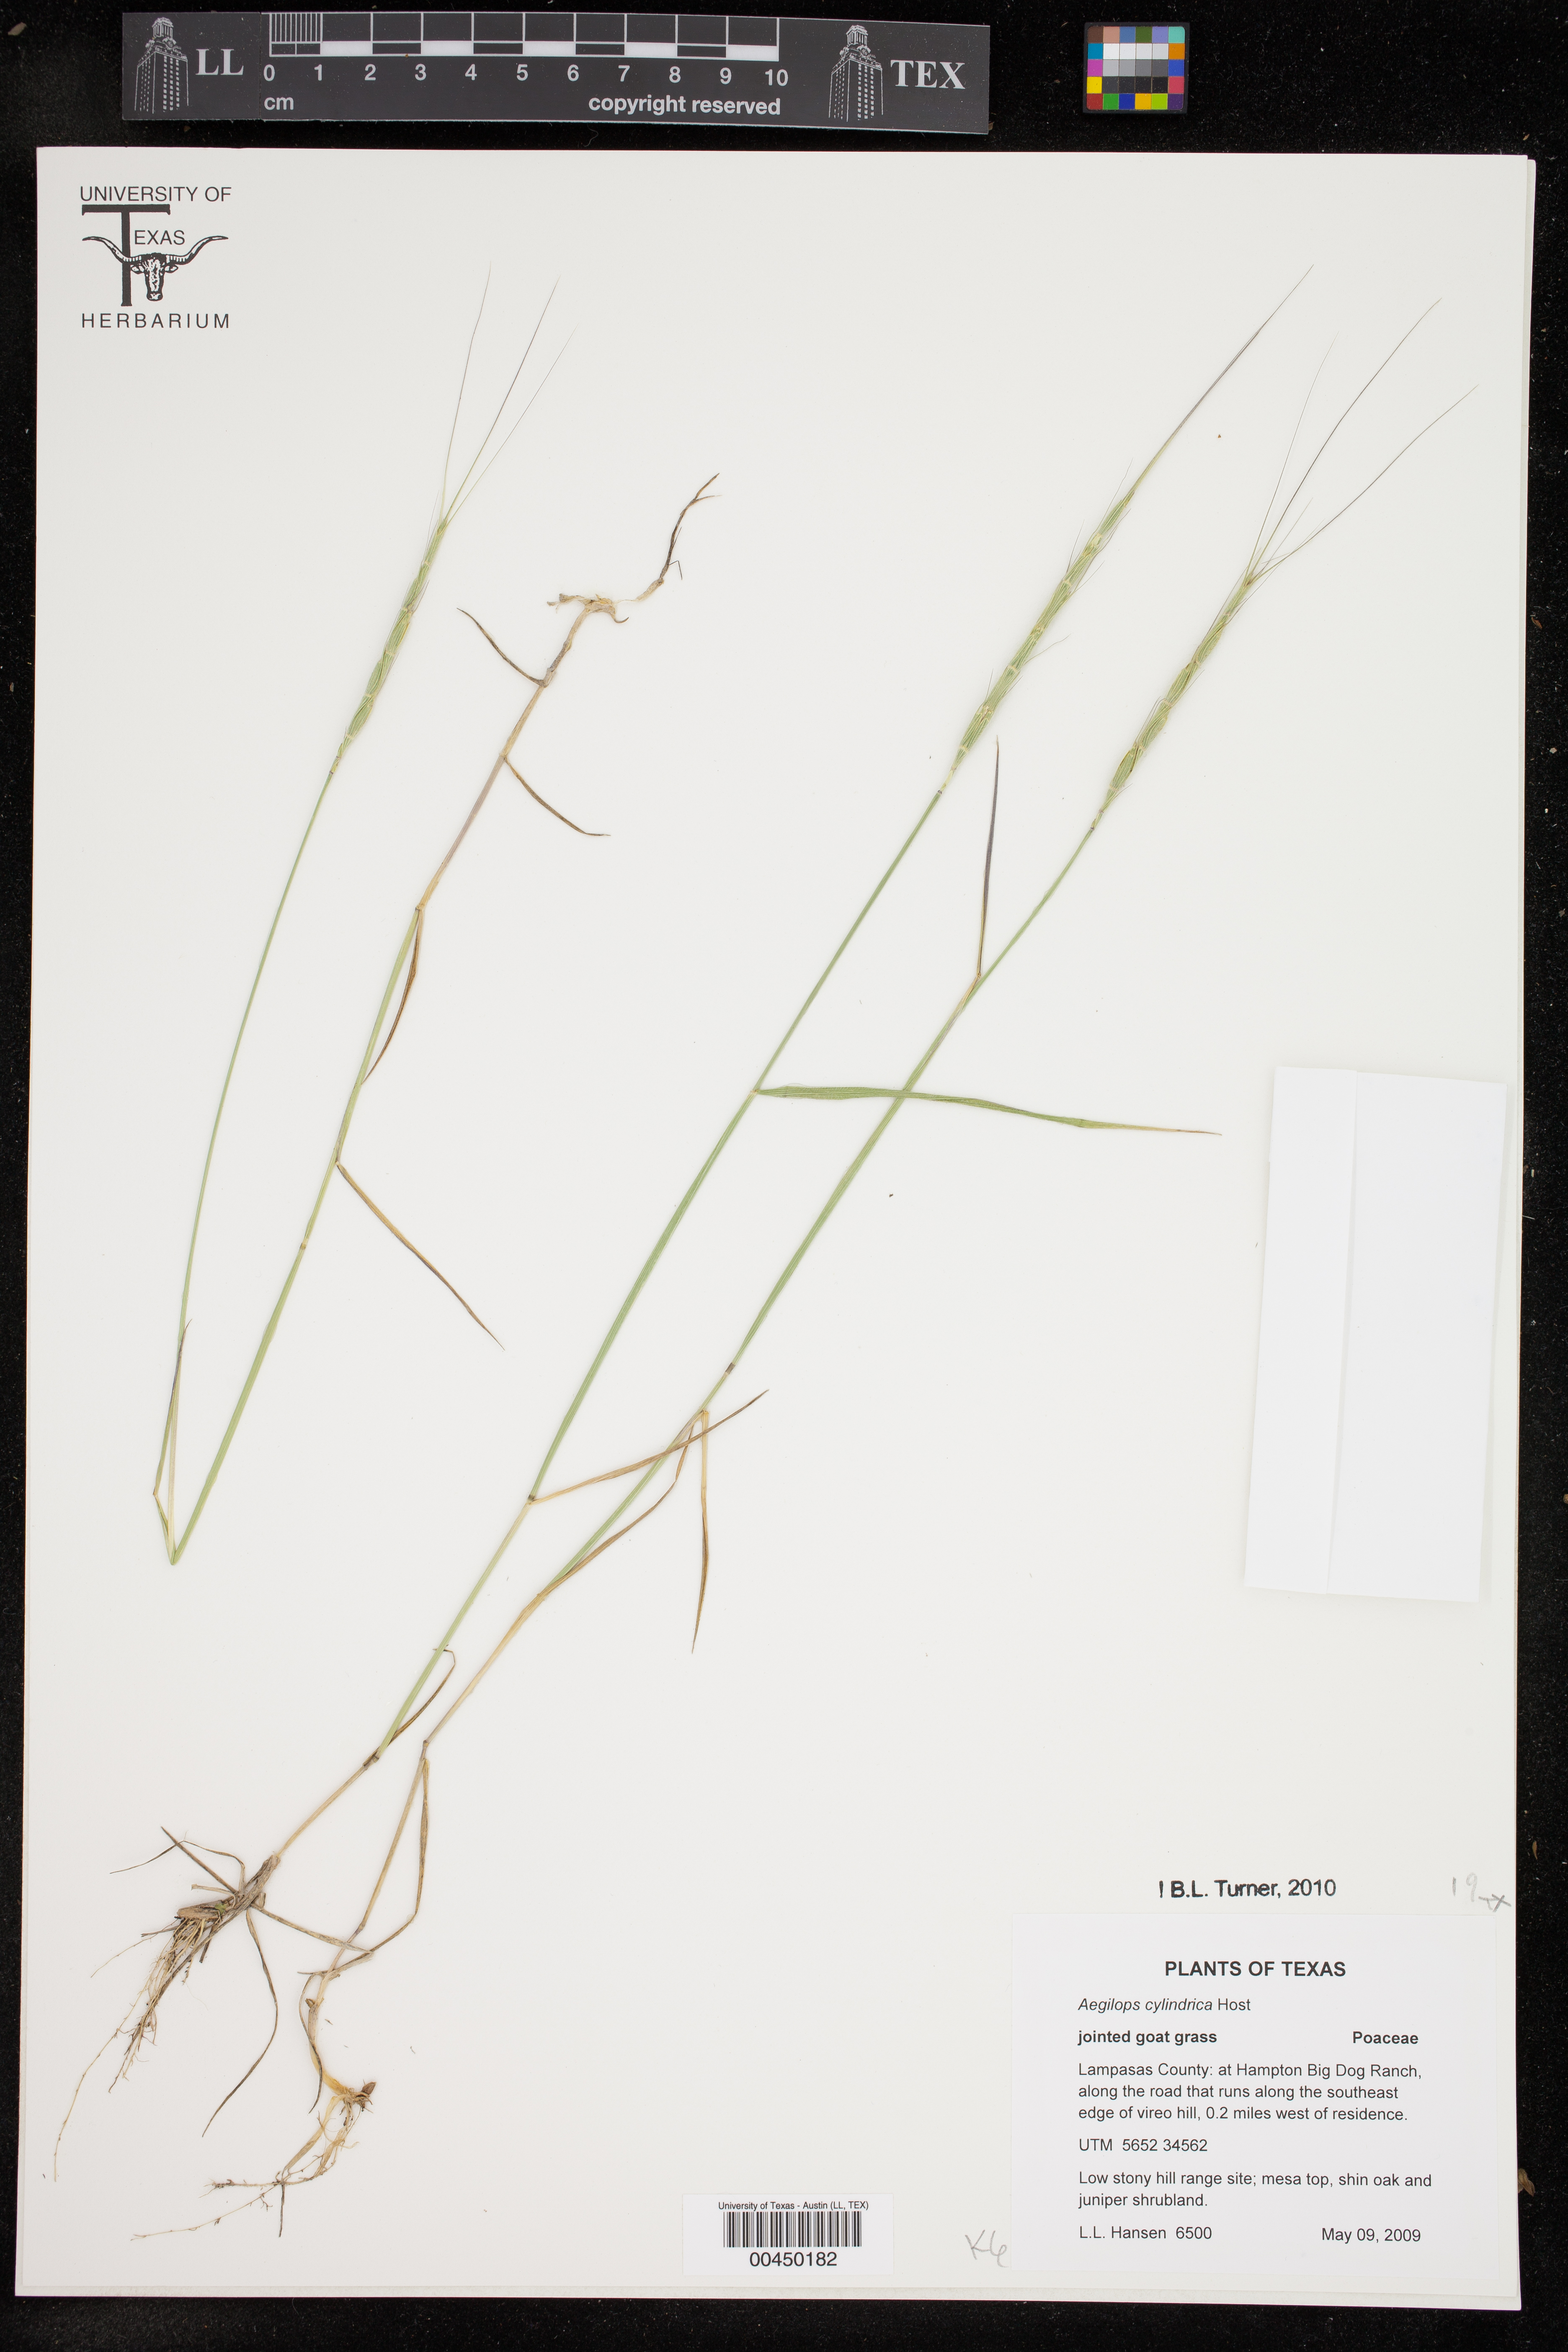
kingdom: Plantae
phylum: Tracheophyta
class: Liliopsida
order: Poales
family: Poaceae
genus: Aegilops
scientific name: Aegilops cylindrica
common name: Jointed goatgrass
